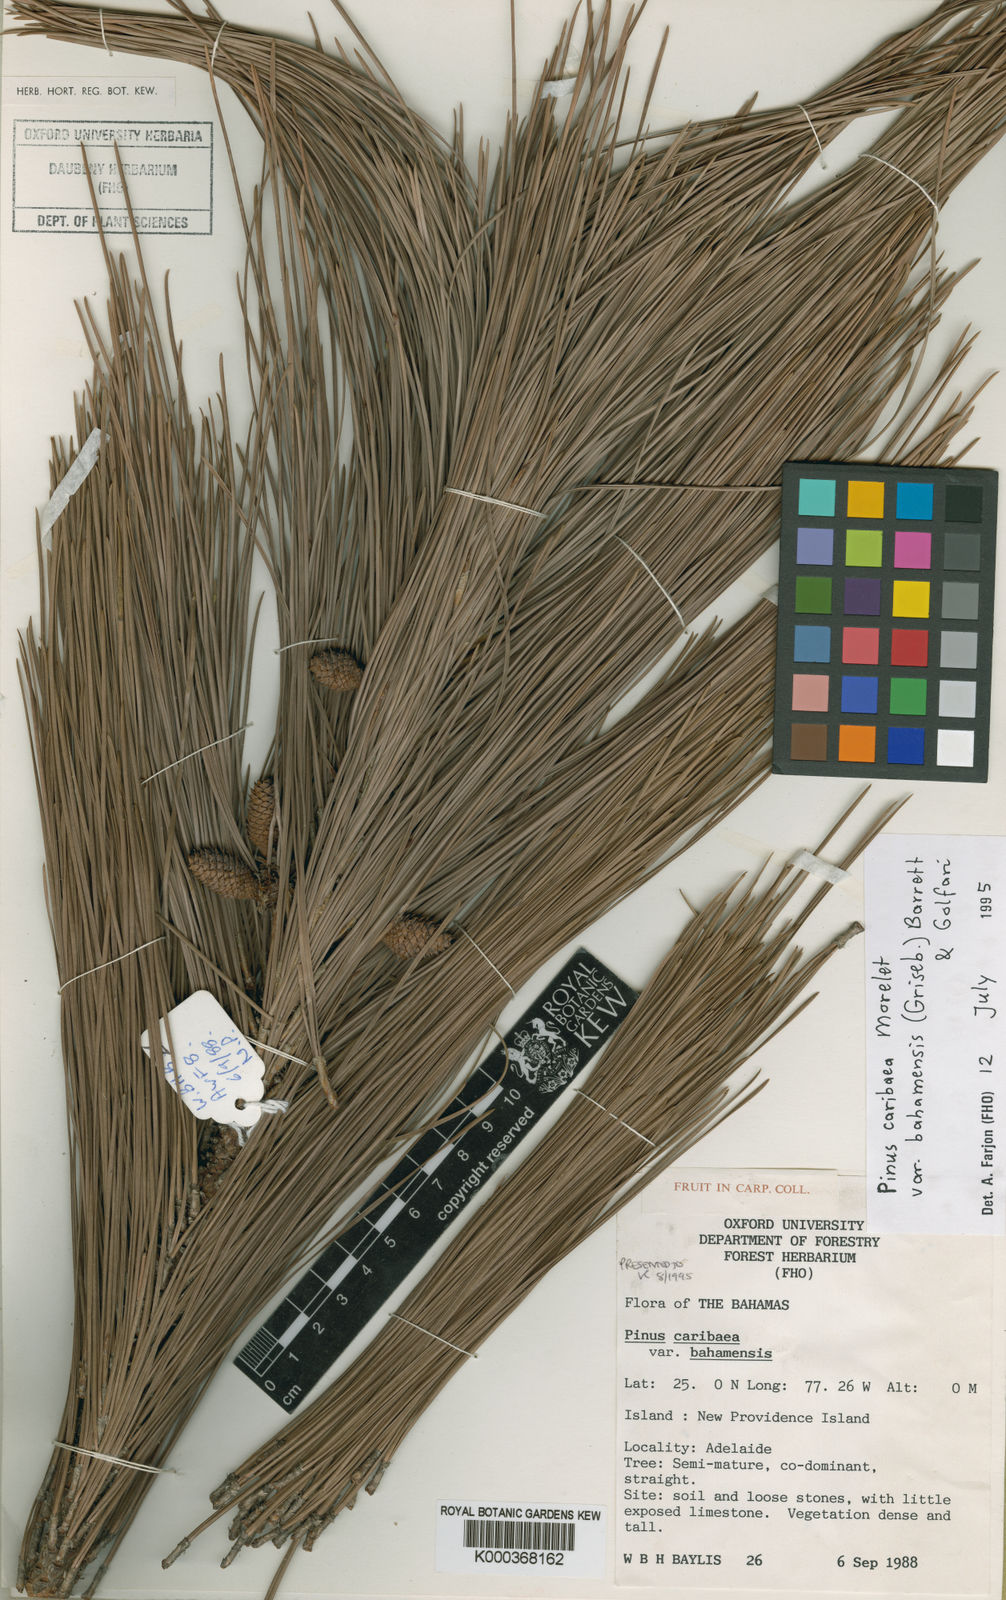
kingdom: Plantae
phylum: Tracheophyta
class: Pinopsida
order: Pinales
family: Pinaceae
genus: Pinus
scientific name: Pinus caribaea
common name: Caribbean pine
